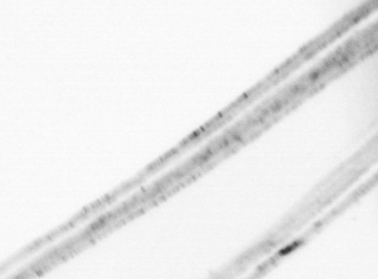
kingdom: Animalia
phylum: Chordata
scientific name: Chordata
